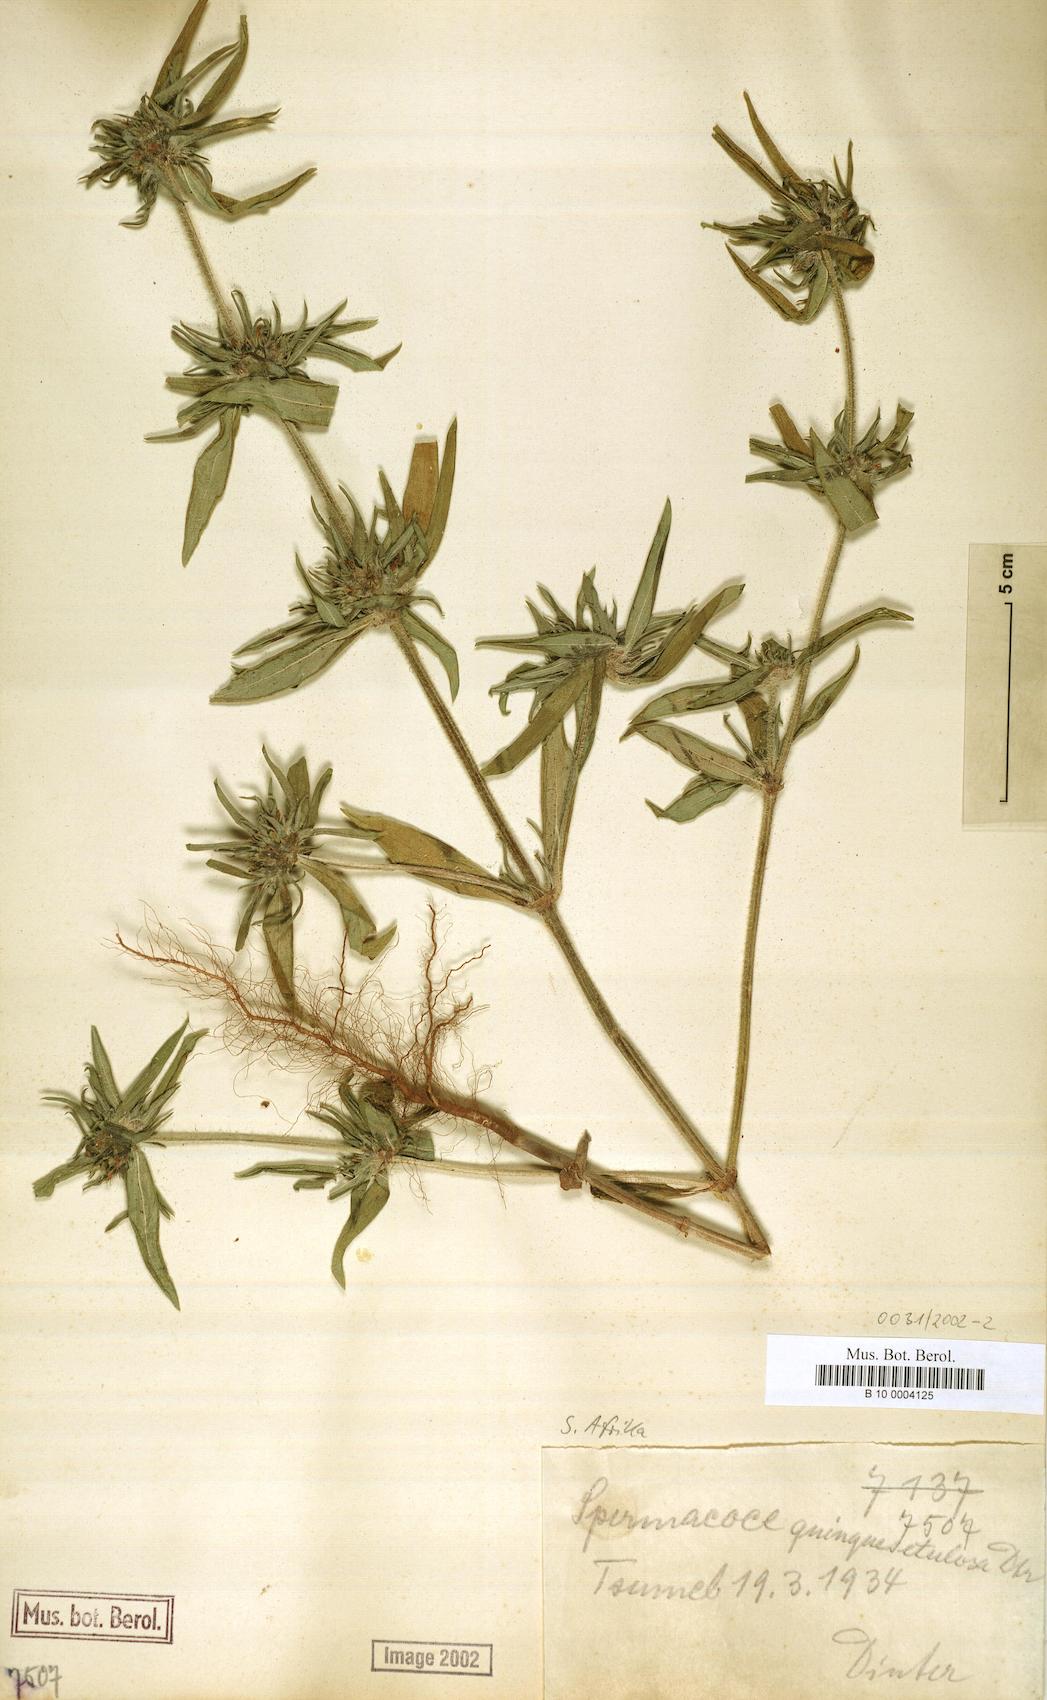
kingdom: Plantae
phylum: Tracheophyta
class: Magnoliopsida
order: Gentianales
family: Rubiaceae
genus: Spermacoce
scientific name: Spermacoce
